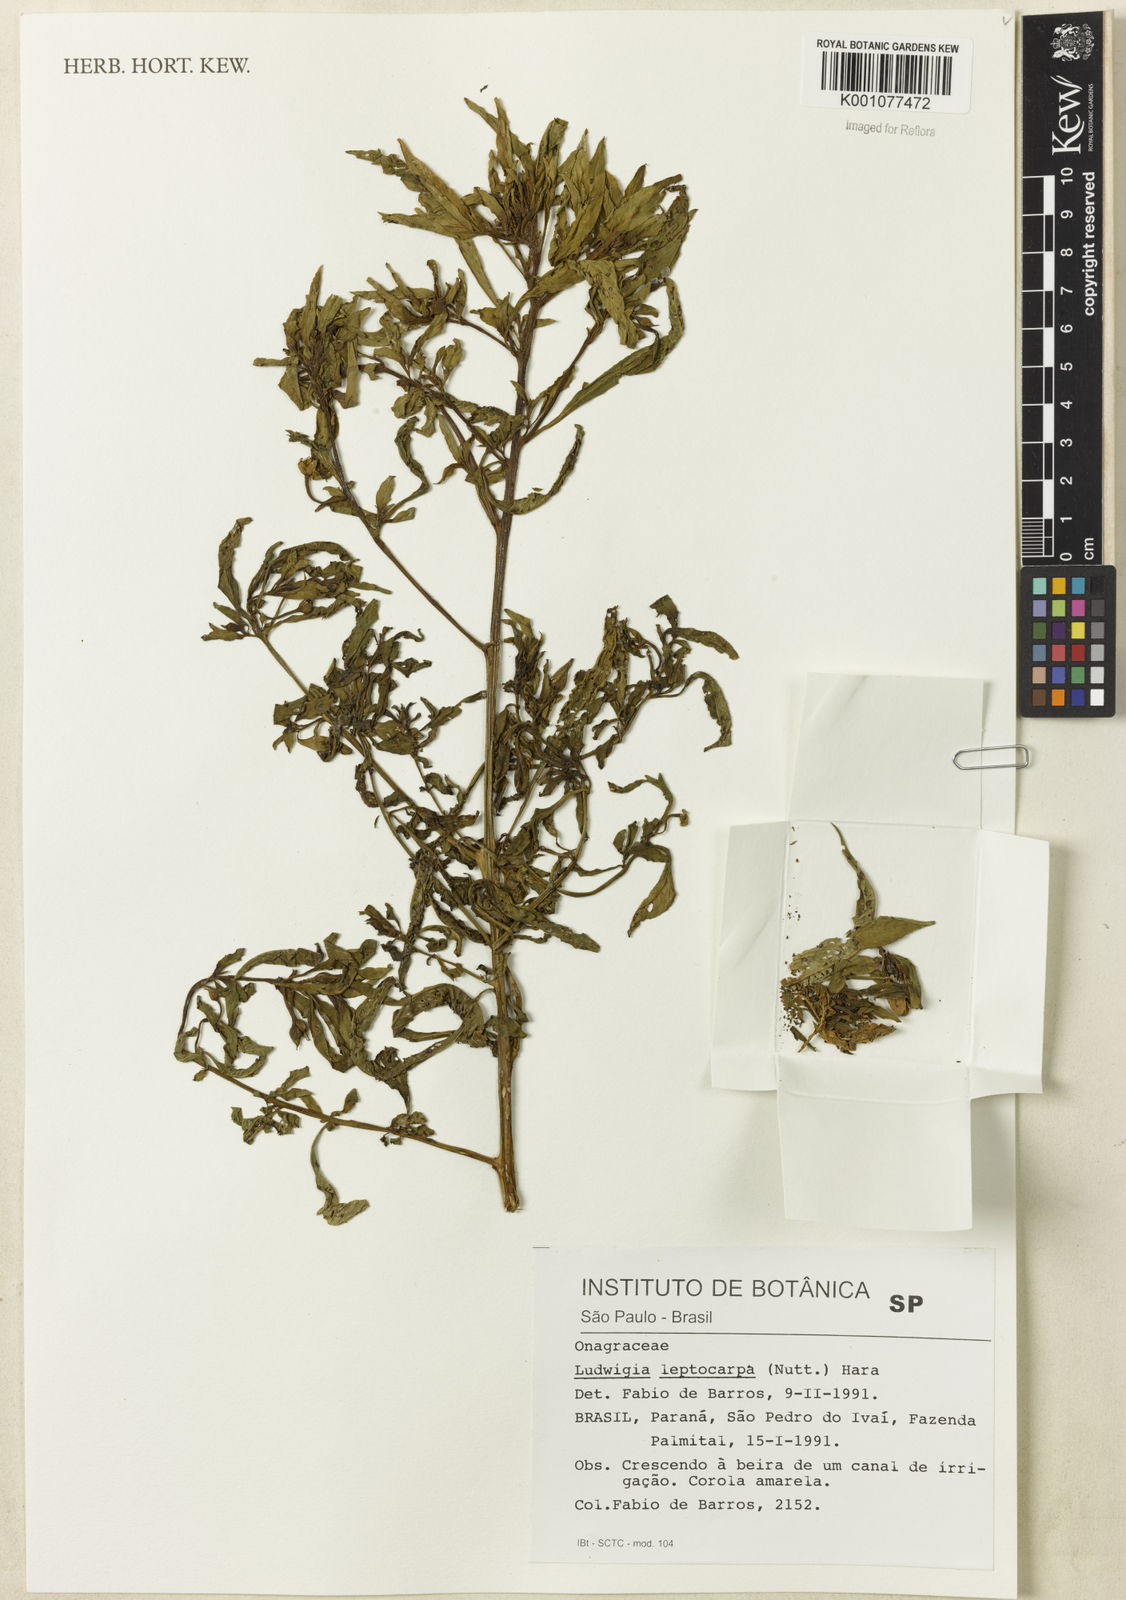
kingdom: Plantae
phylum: Tracheophyta
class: Magnoliopsida
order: Myrtales
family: Onagraceae
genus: Ludwigia
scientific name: Ludwigia leptocarpa
